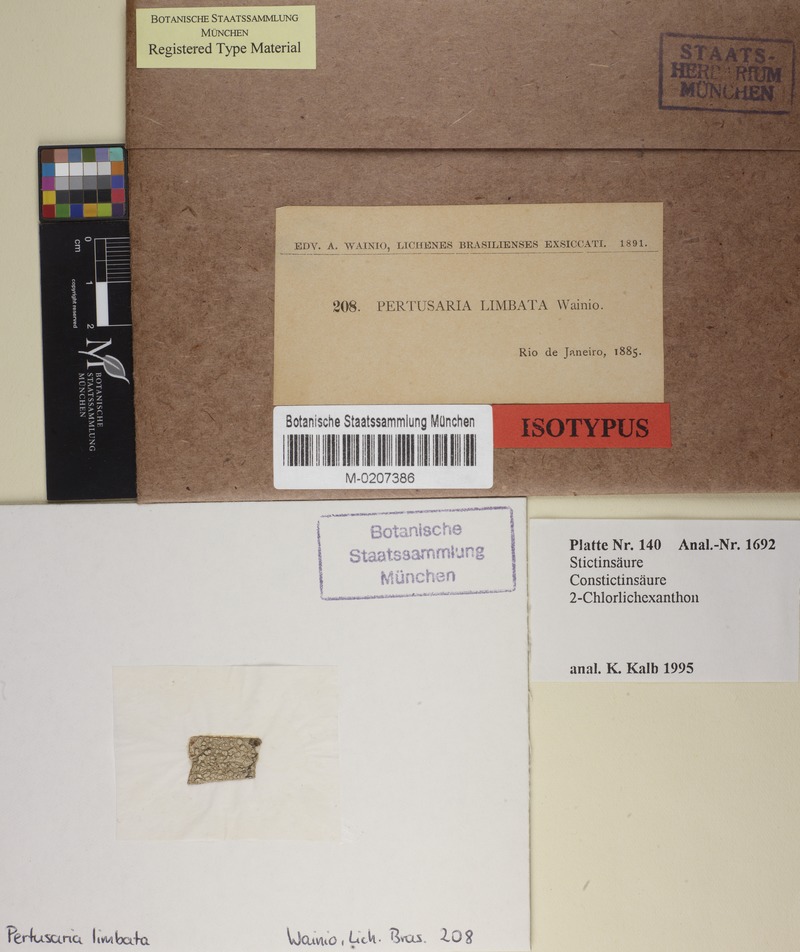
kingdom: Fungi
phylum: Ascomycota
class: Lecanoromycetes
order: Pertusariales
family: Pertusariaceae
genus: Pertusaria
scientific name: Pertusaria limbata
